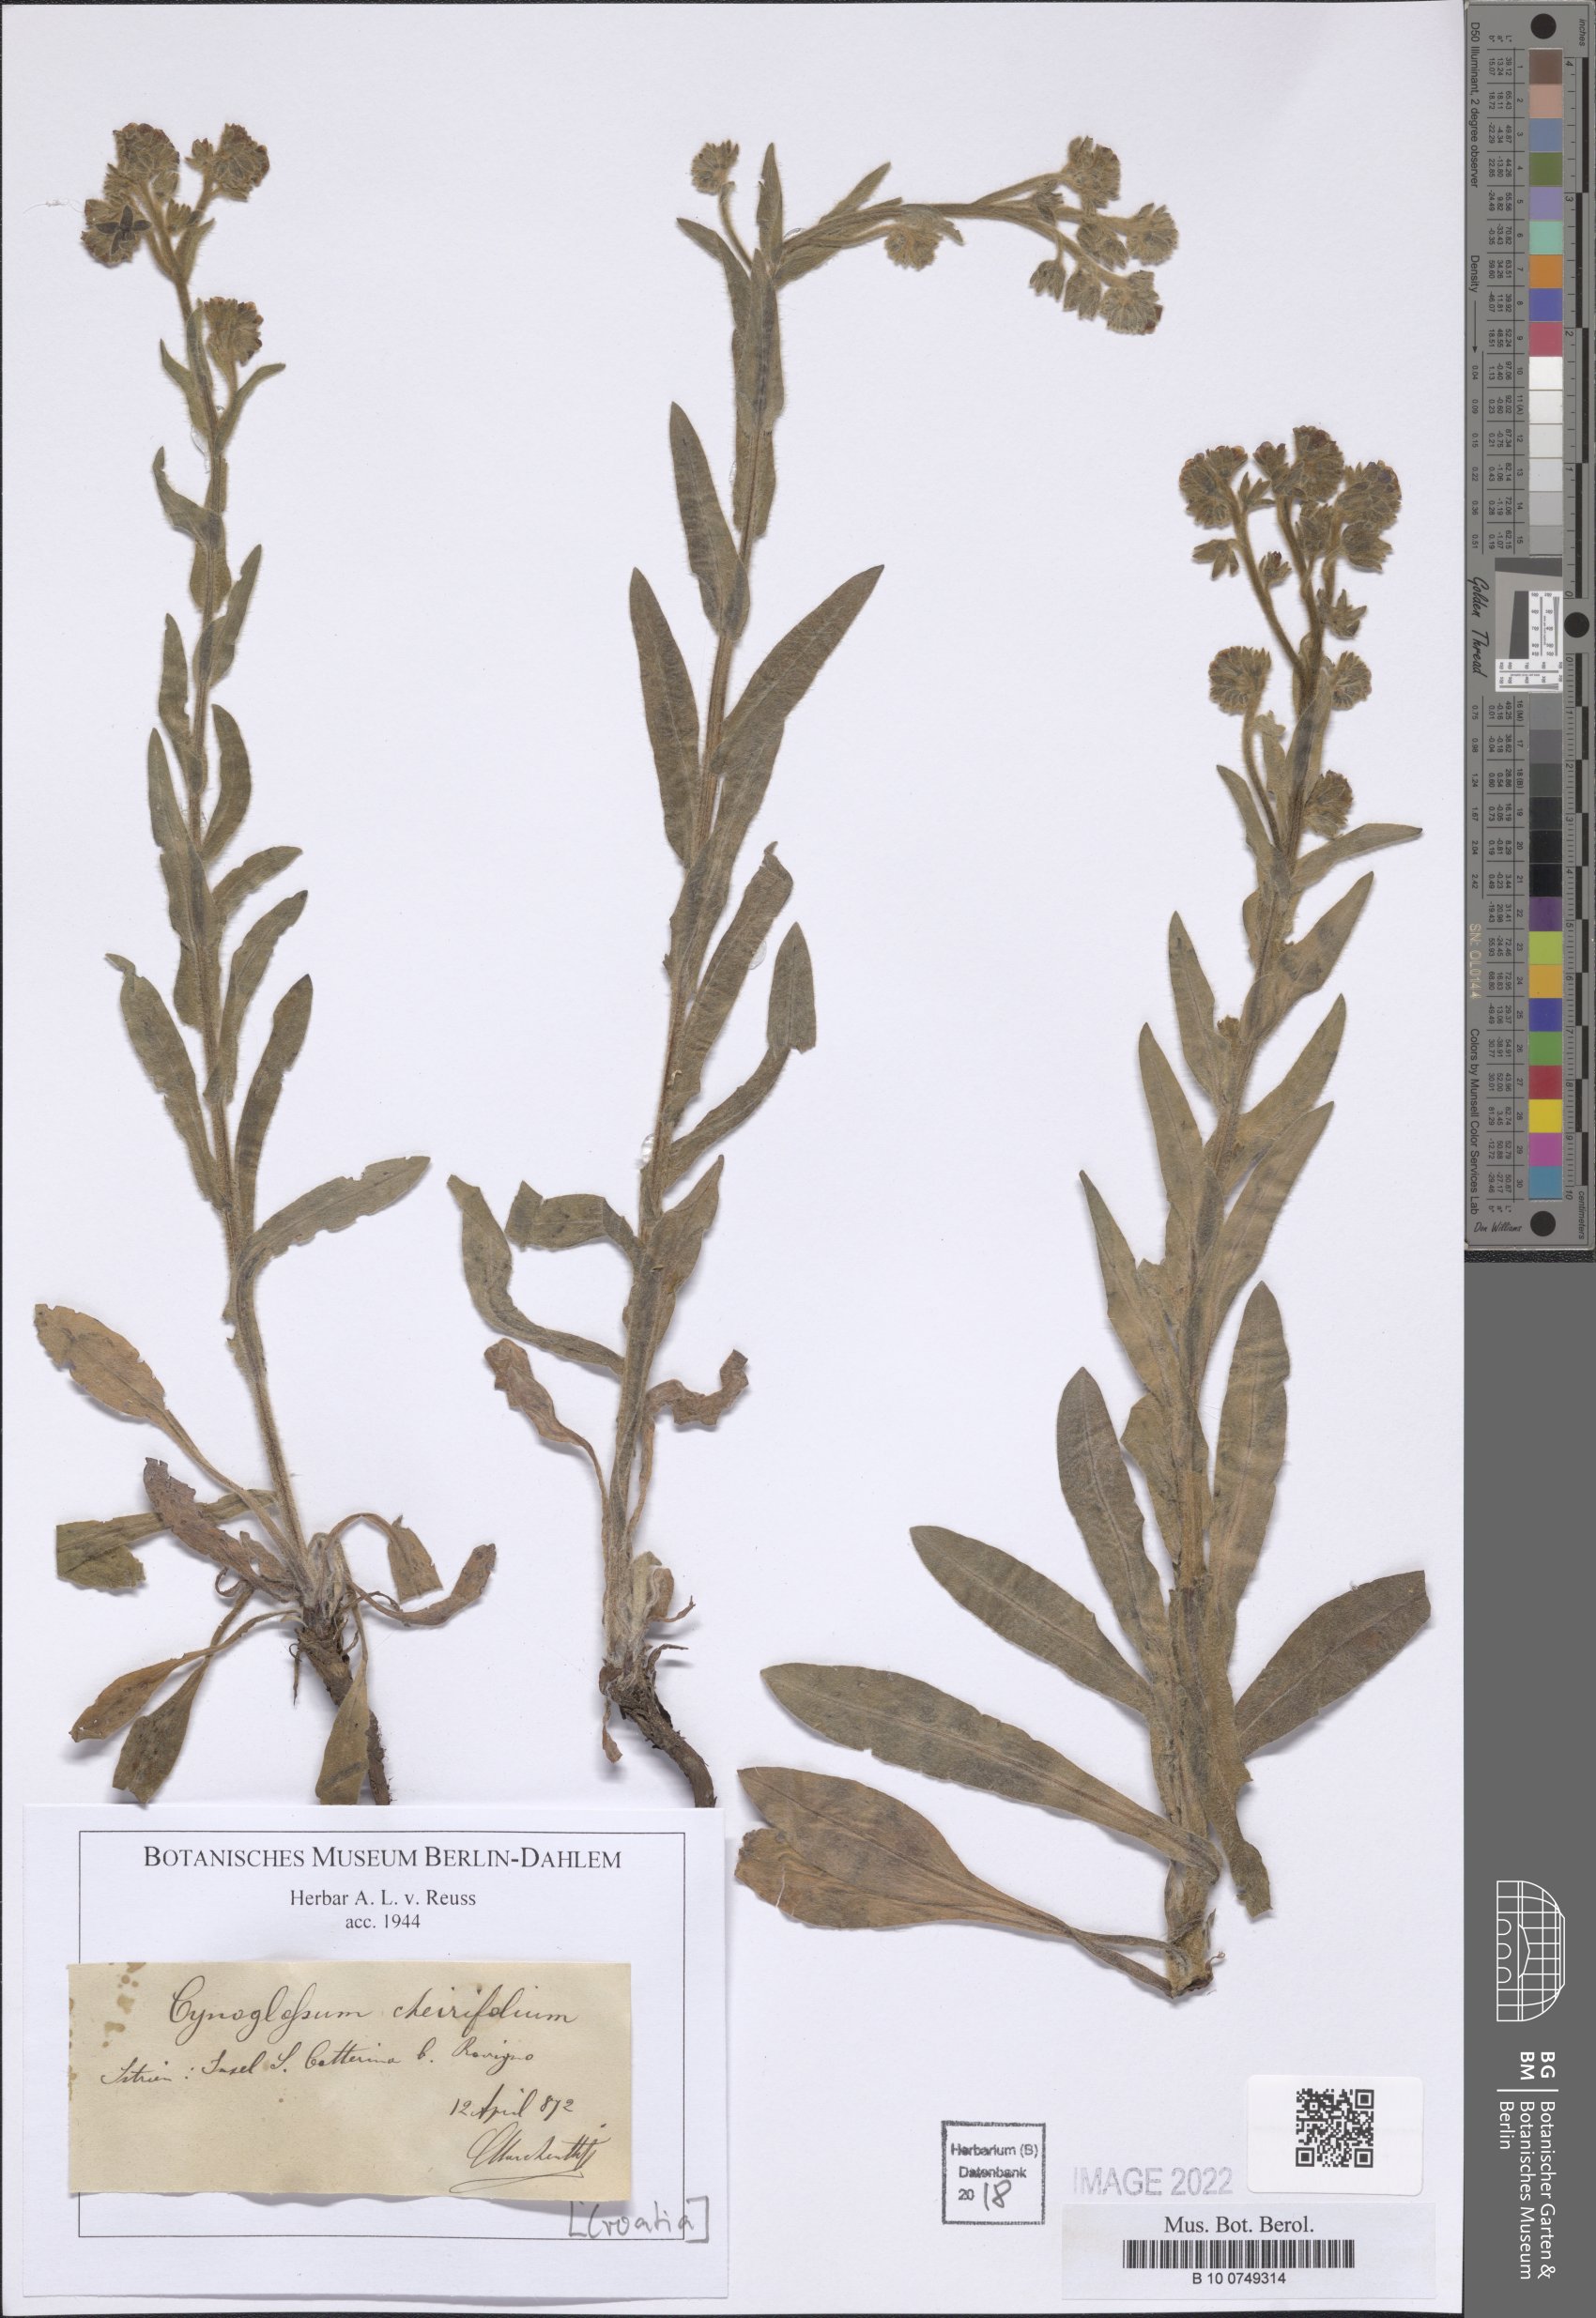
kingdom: Plantae
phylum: Tracheophyta
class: Magnoliopsida
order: Boraginales
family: Boraginaceae
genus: Pardoglossum
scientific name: Pardoglossum cheirifolium
